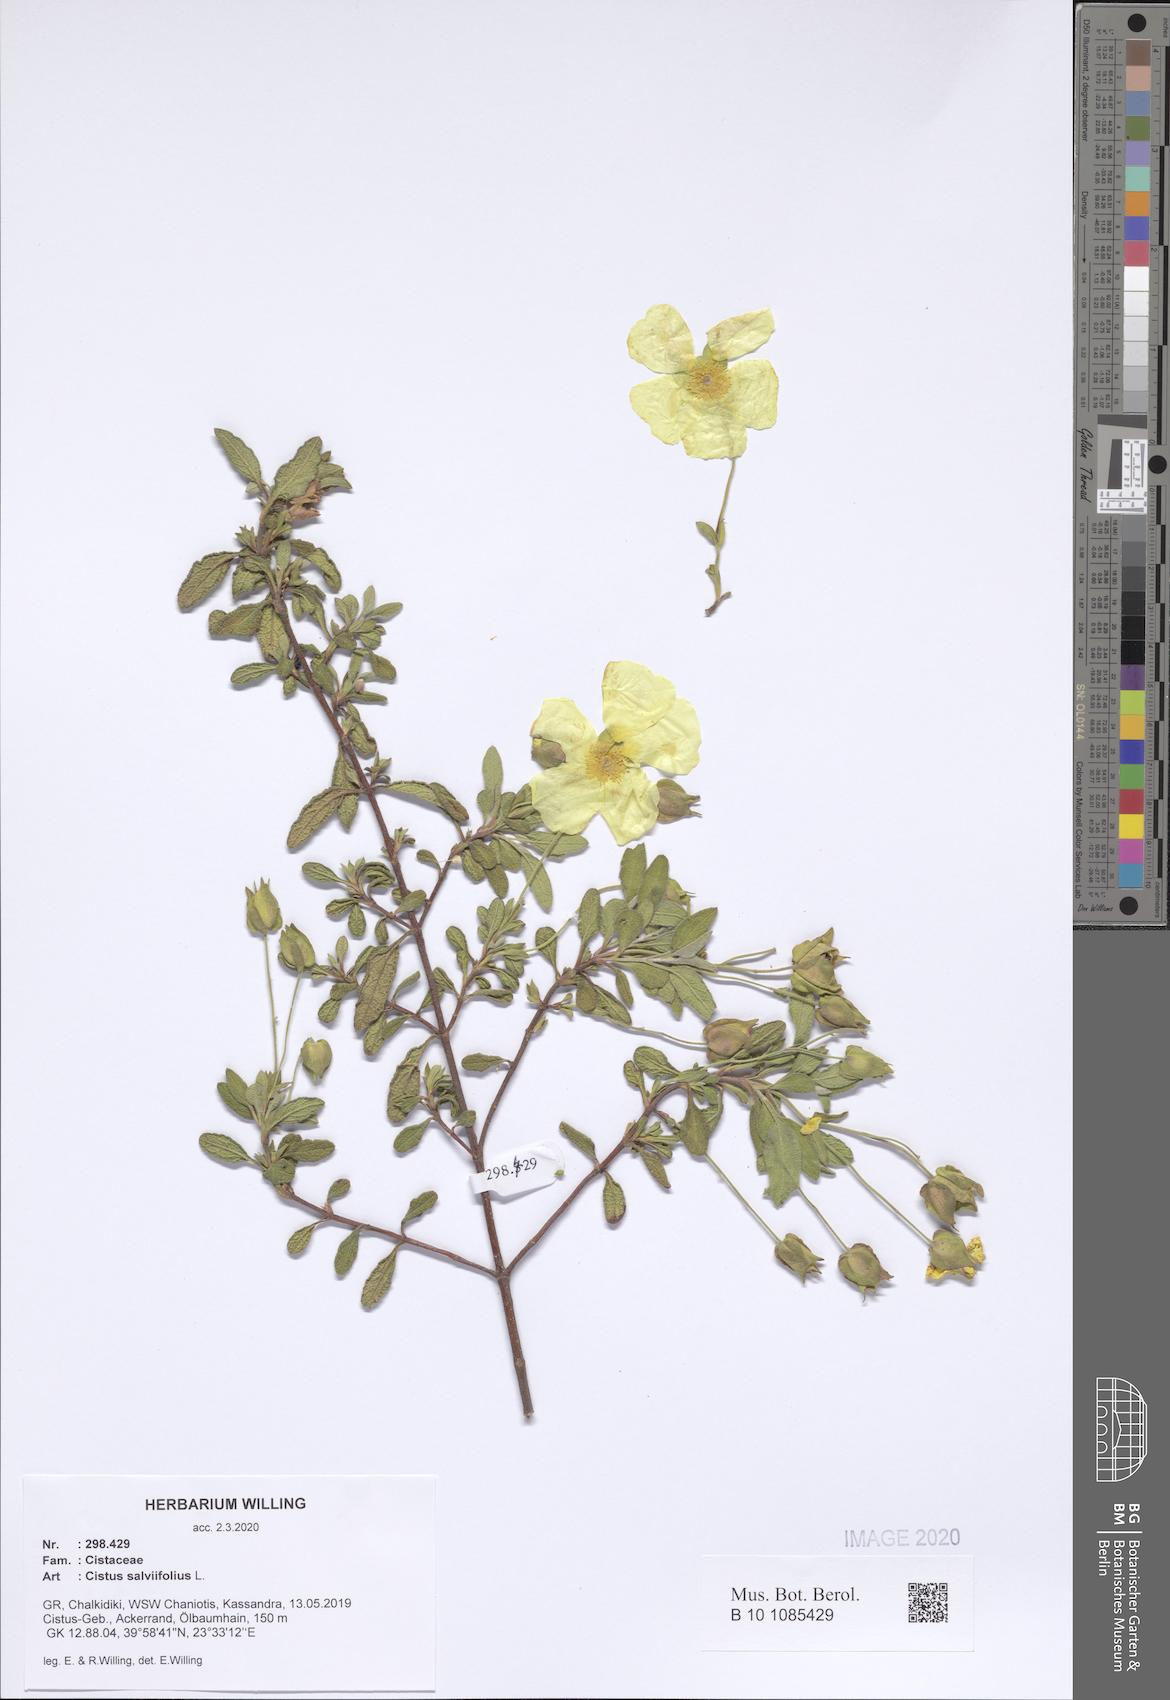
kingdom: Plantae
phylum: Tracheophyta
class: Magnoliopsida
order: Malvales
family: Cistaceae
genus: Cistus
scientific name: Cistus salviifolius
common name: Salvia cistus
